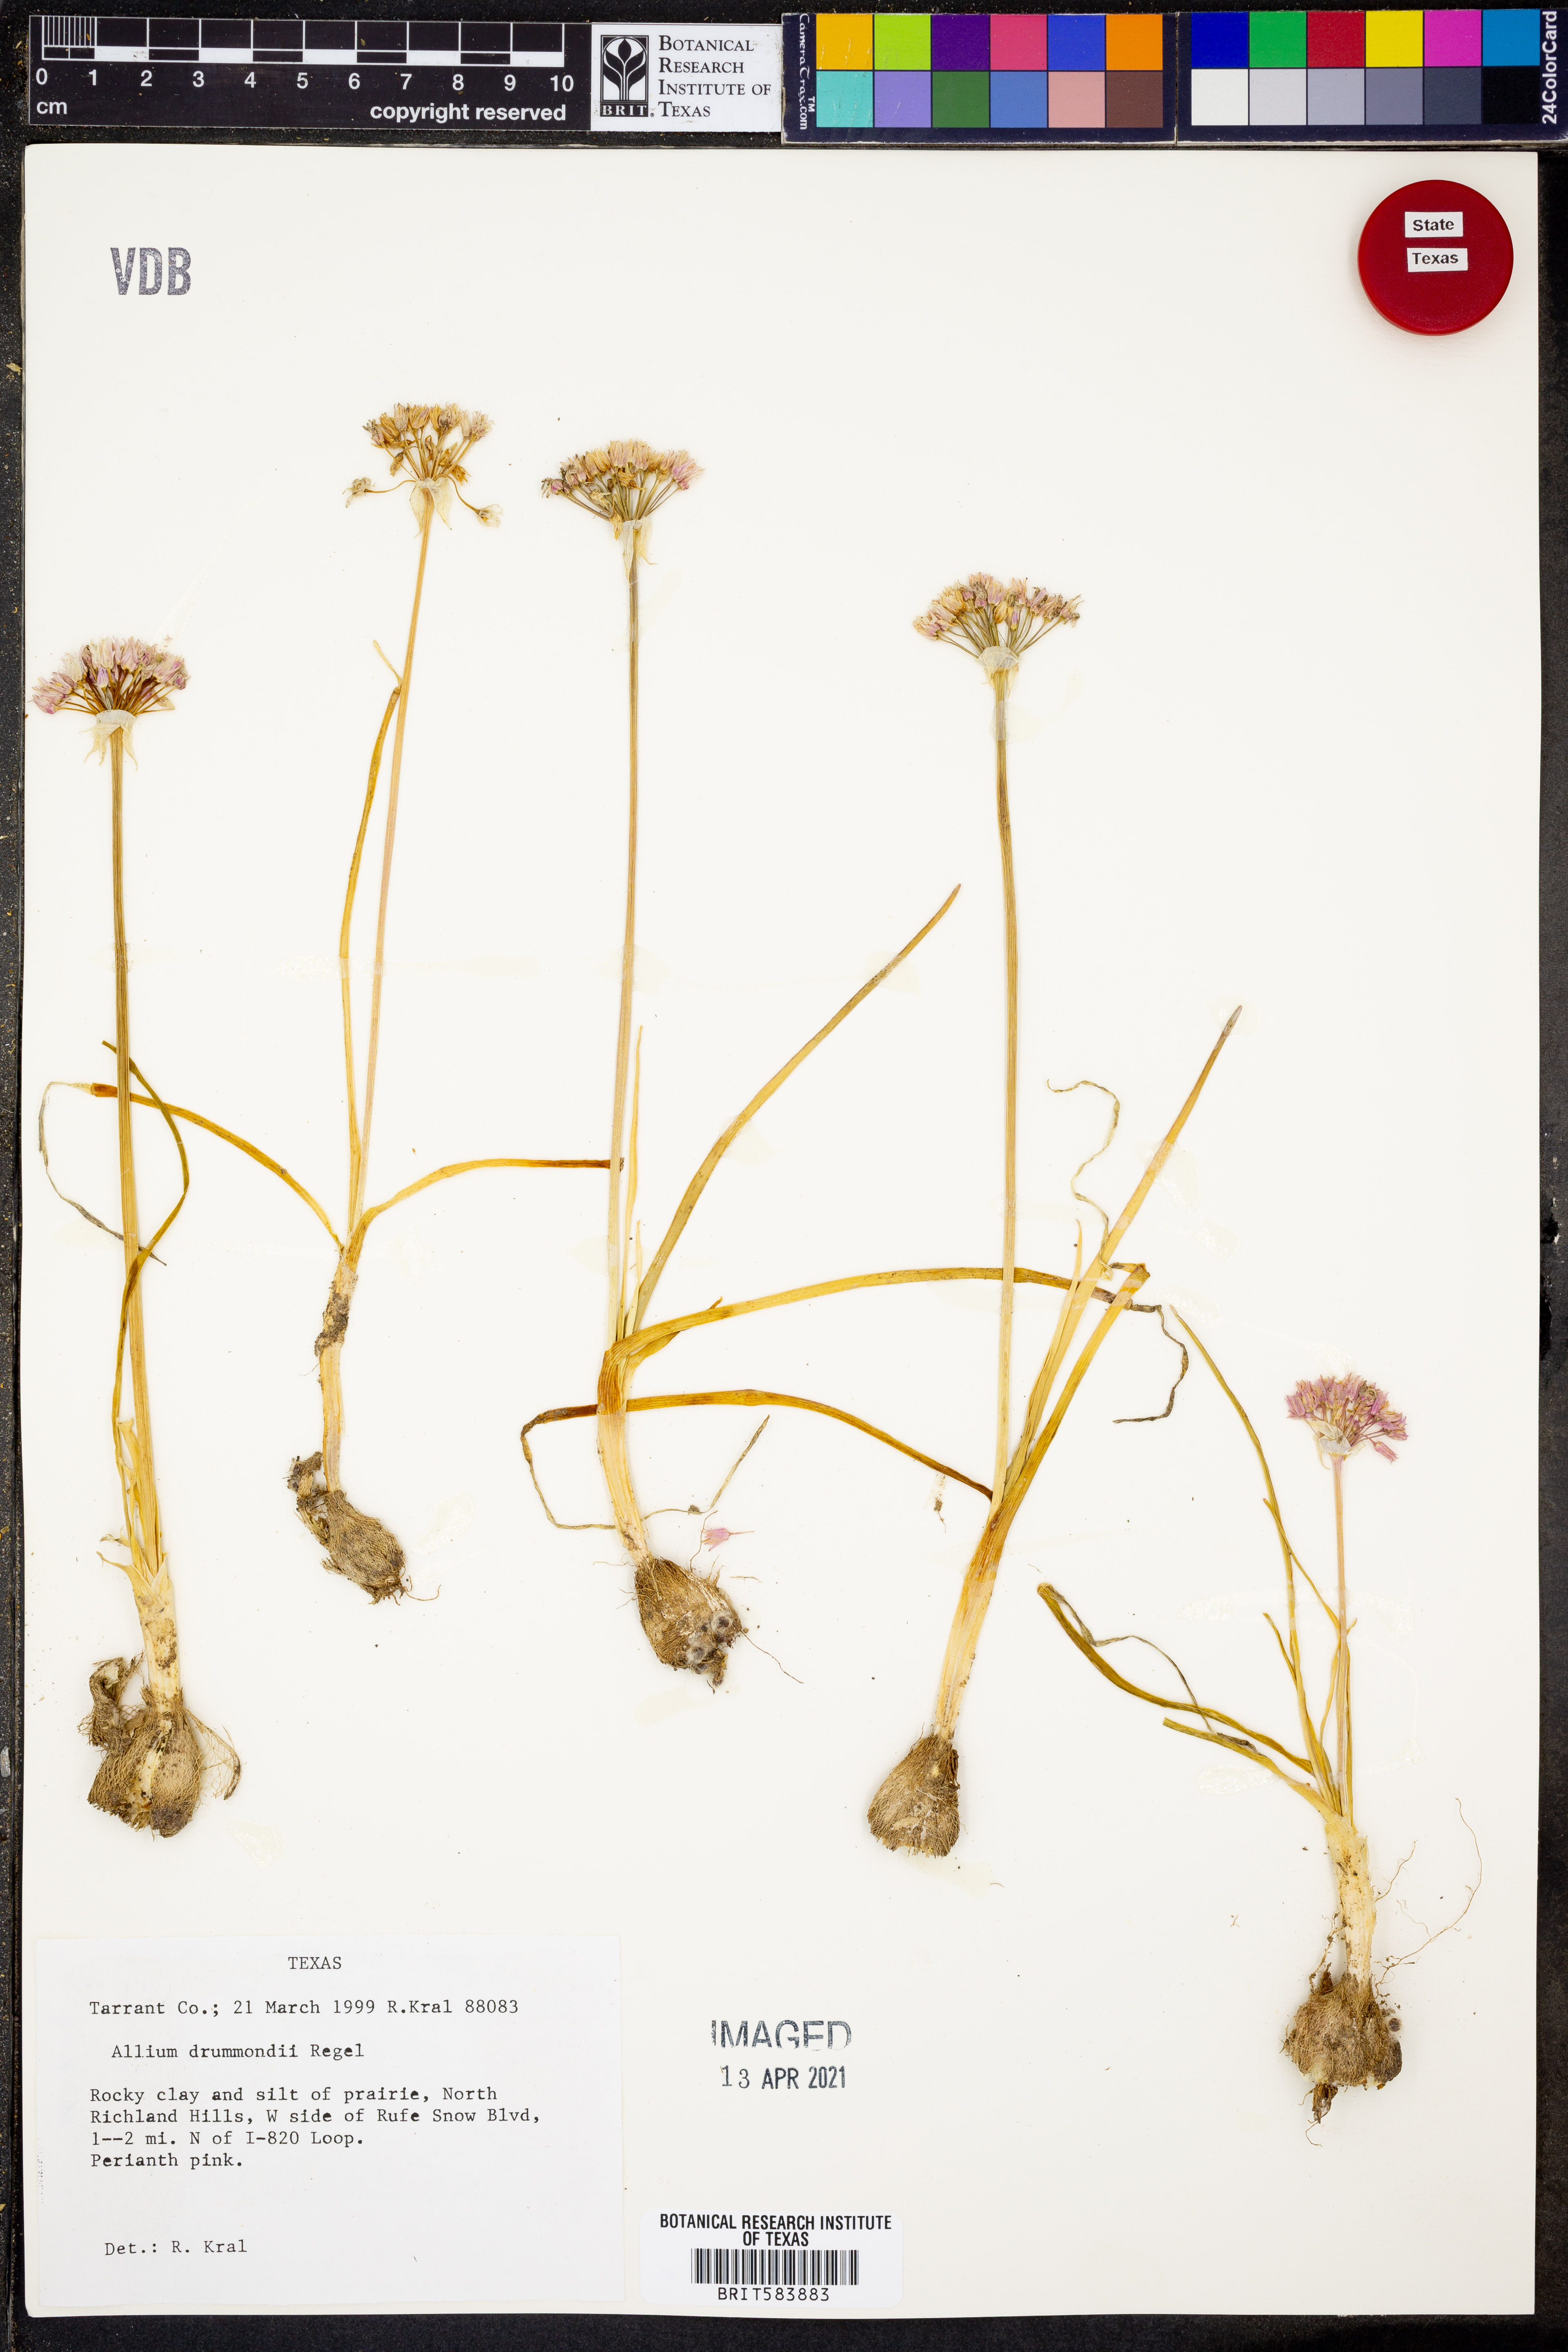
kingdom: Plantae
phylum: Tracheophyta
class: Liliopsida
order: Asparagales
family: Amaryllidaceae
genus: Allium
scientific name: Allium drummondii
